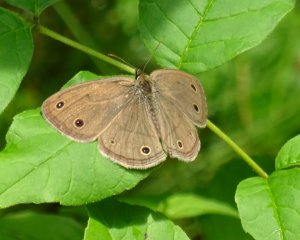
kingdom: Animalia
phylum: Arthropoda
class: Insecta
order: Lepidoptera
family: Nymphalidae
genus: Euptychia
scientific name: Euptychia cymela
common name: Little Wood Satyr
